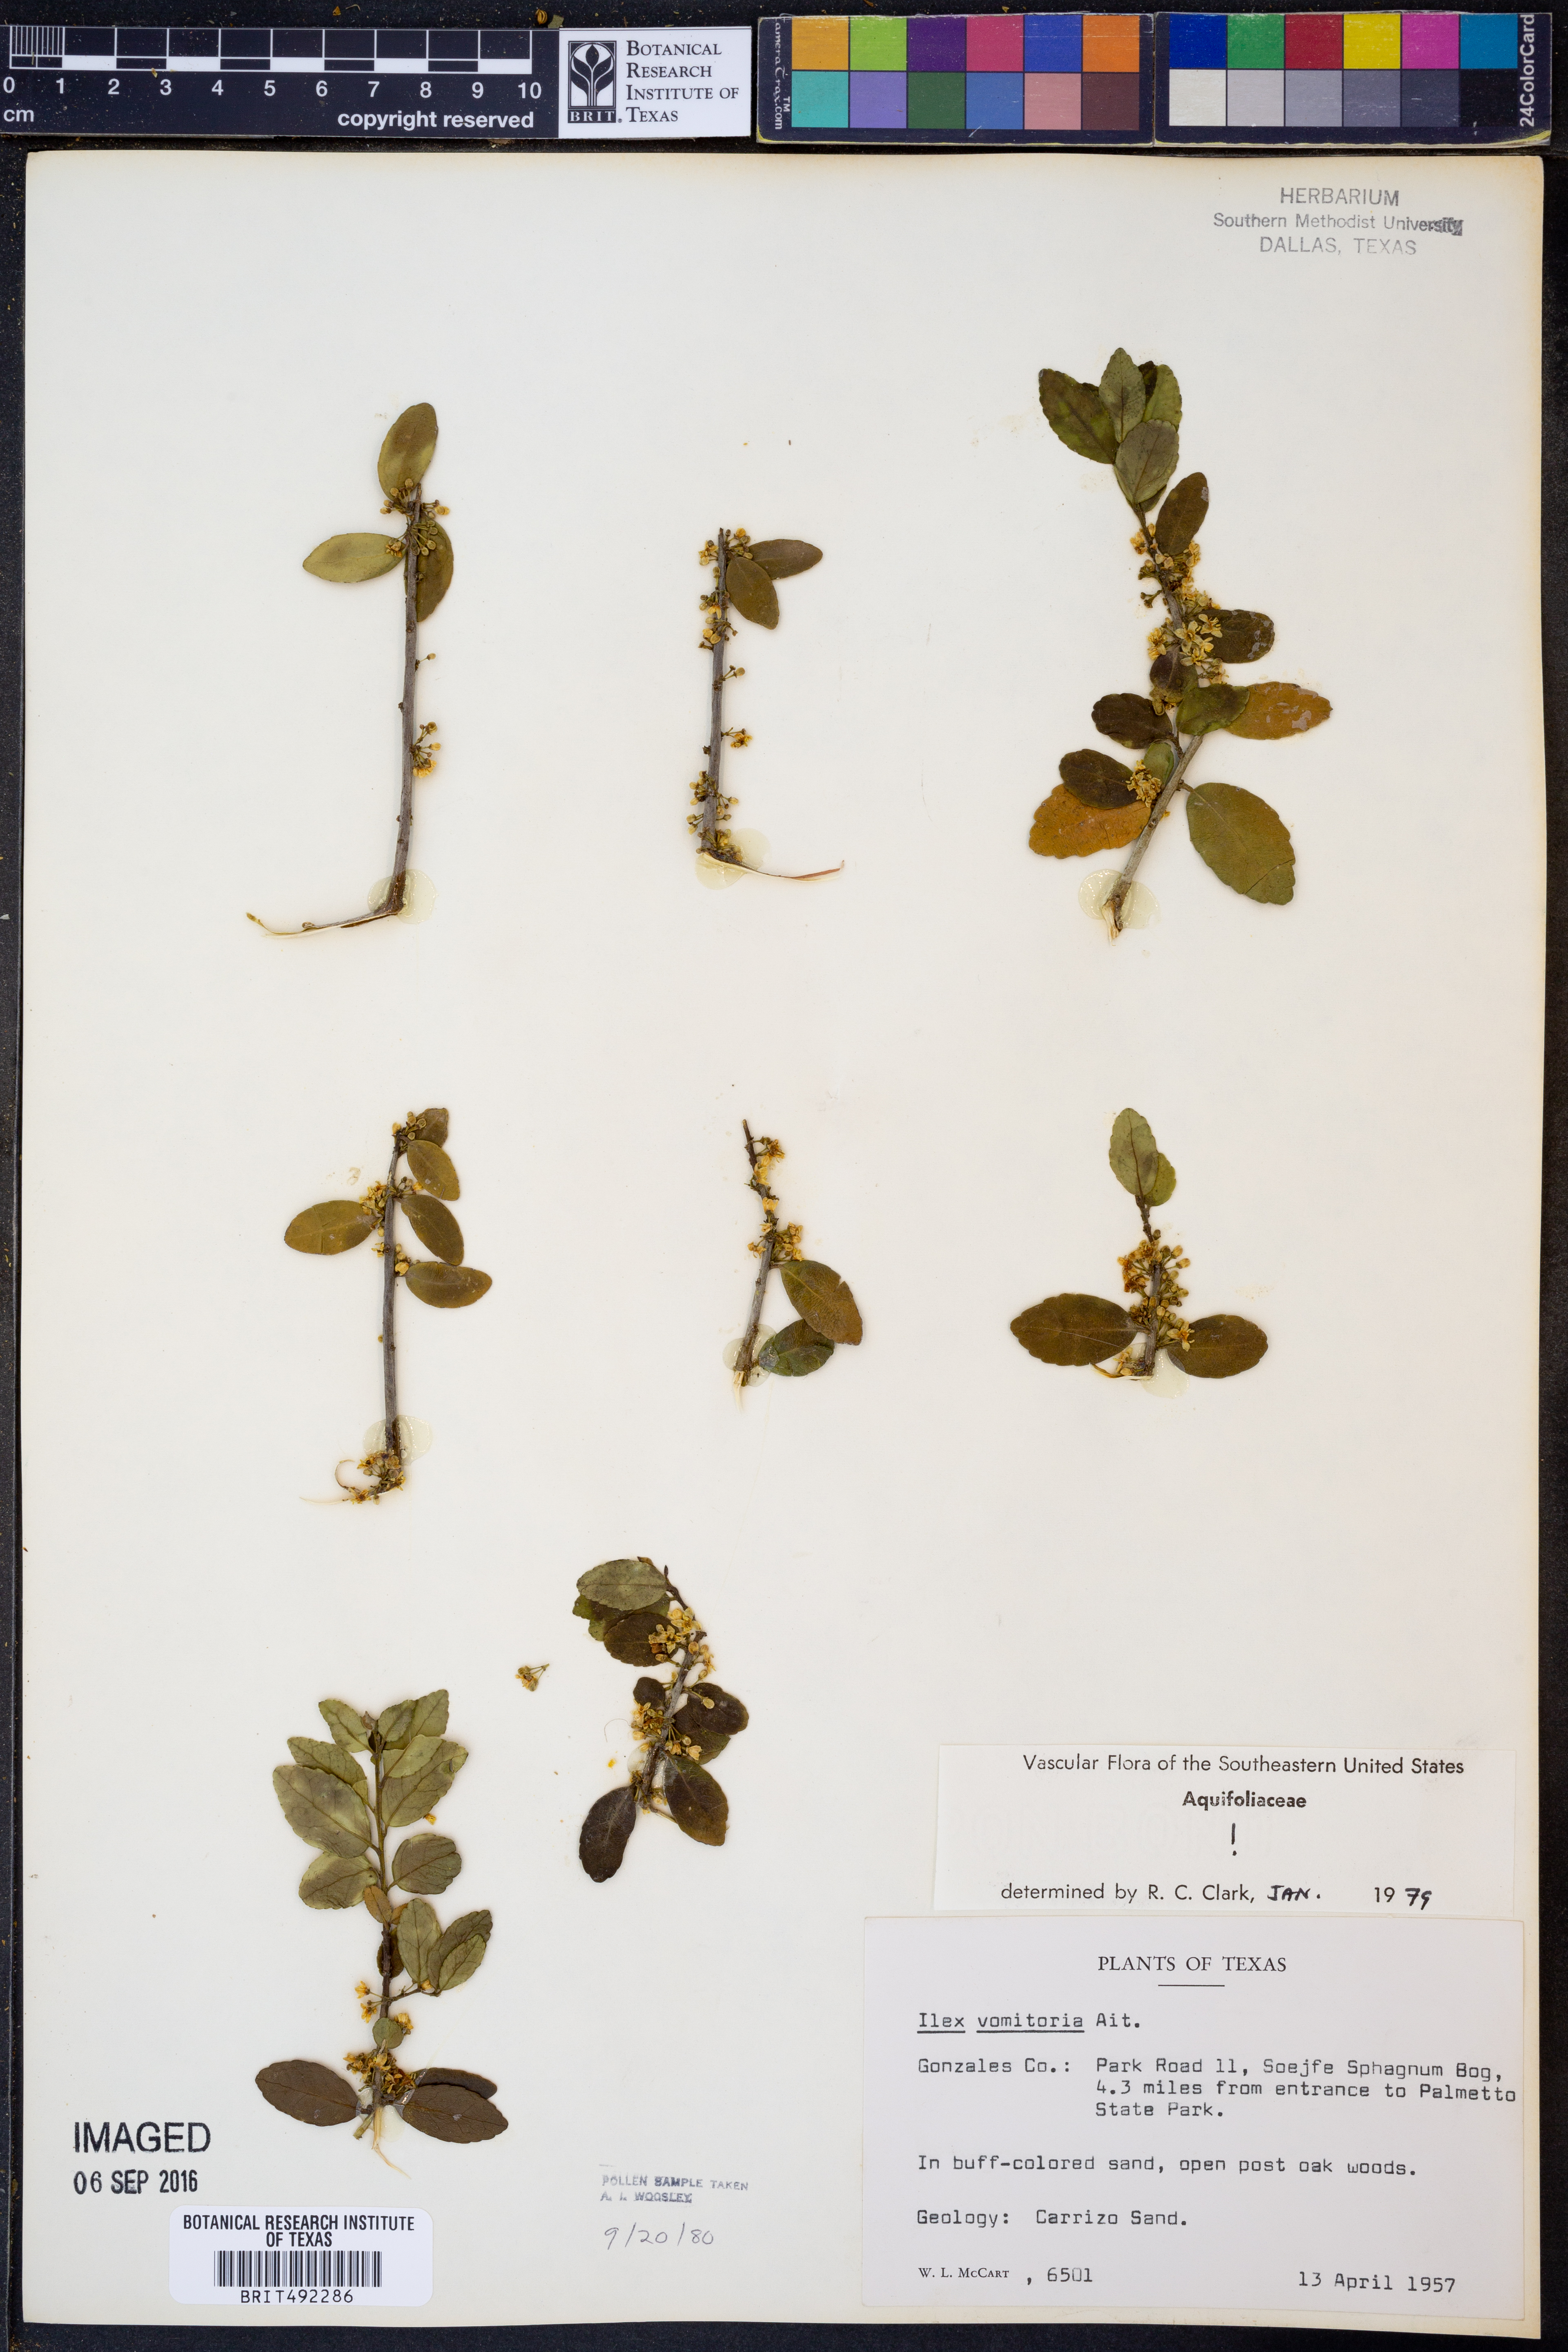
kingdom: Plantae
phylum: Tracheophyta
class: Magnoliopsida
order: Aquifoliales
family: Aquifoliaceae
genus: Ilex
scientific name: Ilex vomitoria
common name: Yaupon holly
